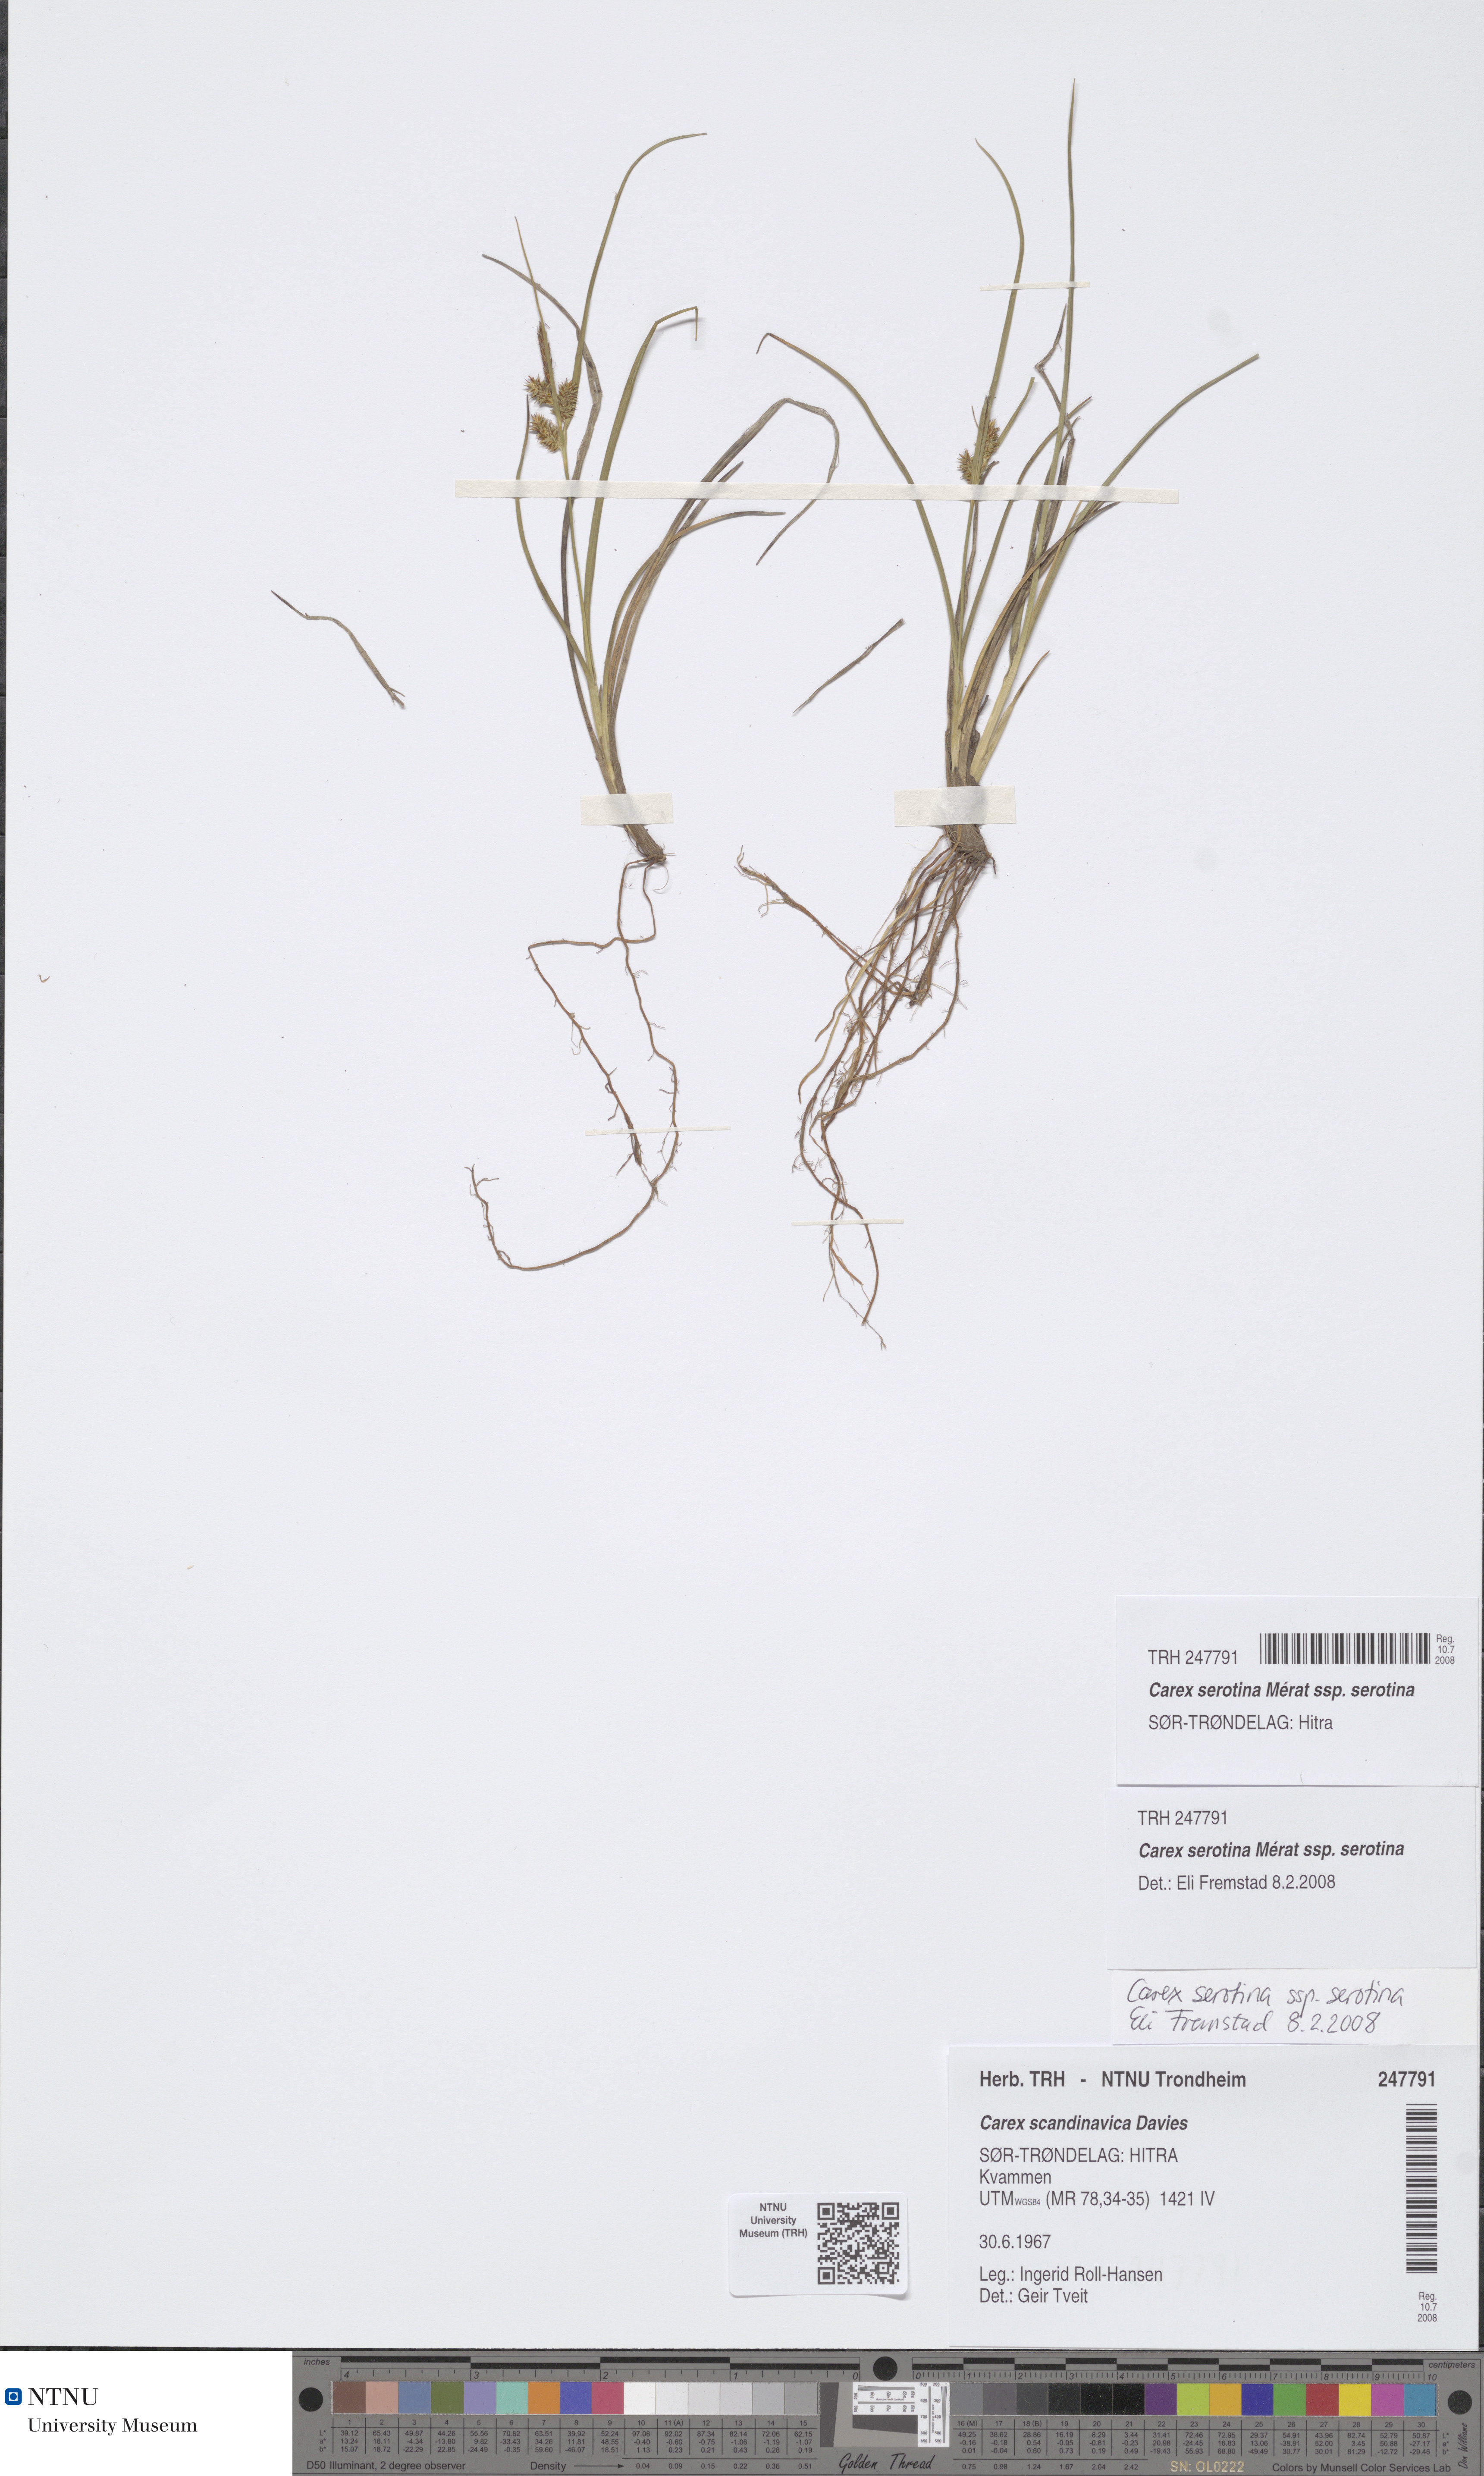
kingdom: Plantae
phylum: Tracheophyta
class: Liliopsida
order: Poales
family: Cyperaceae
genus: Carex
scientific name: Carex oederi
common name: Common & small-fruited yellow-sedge
